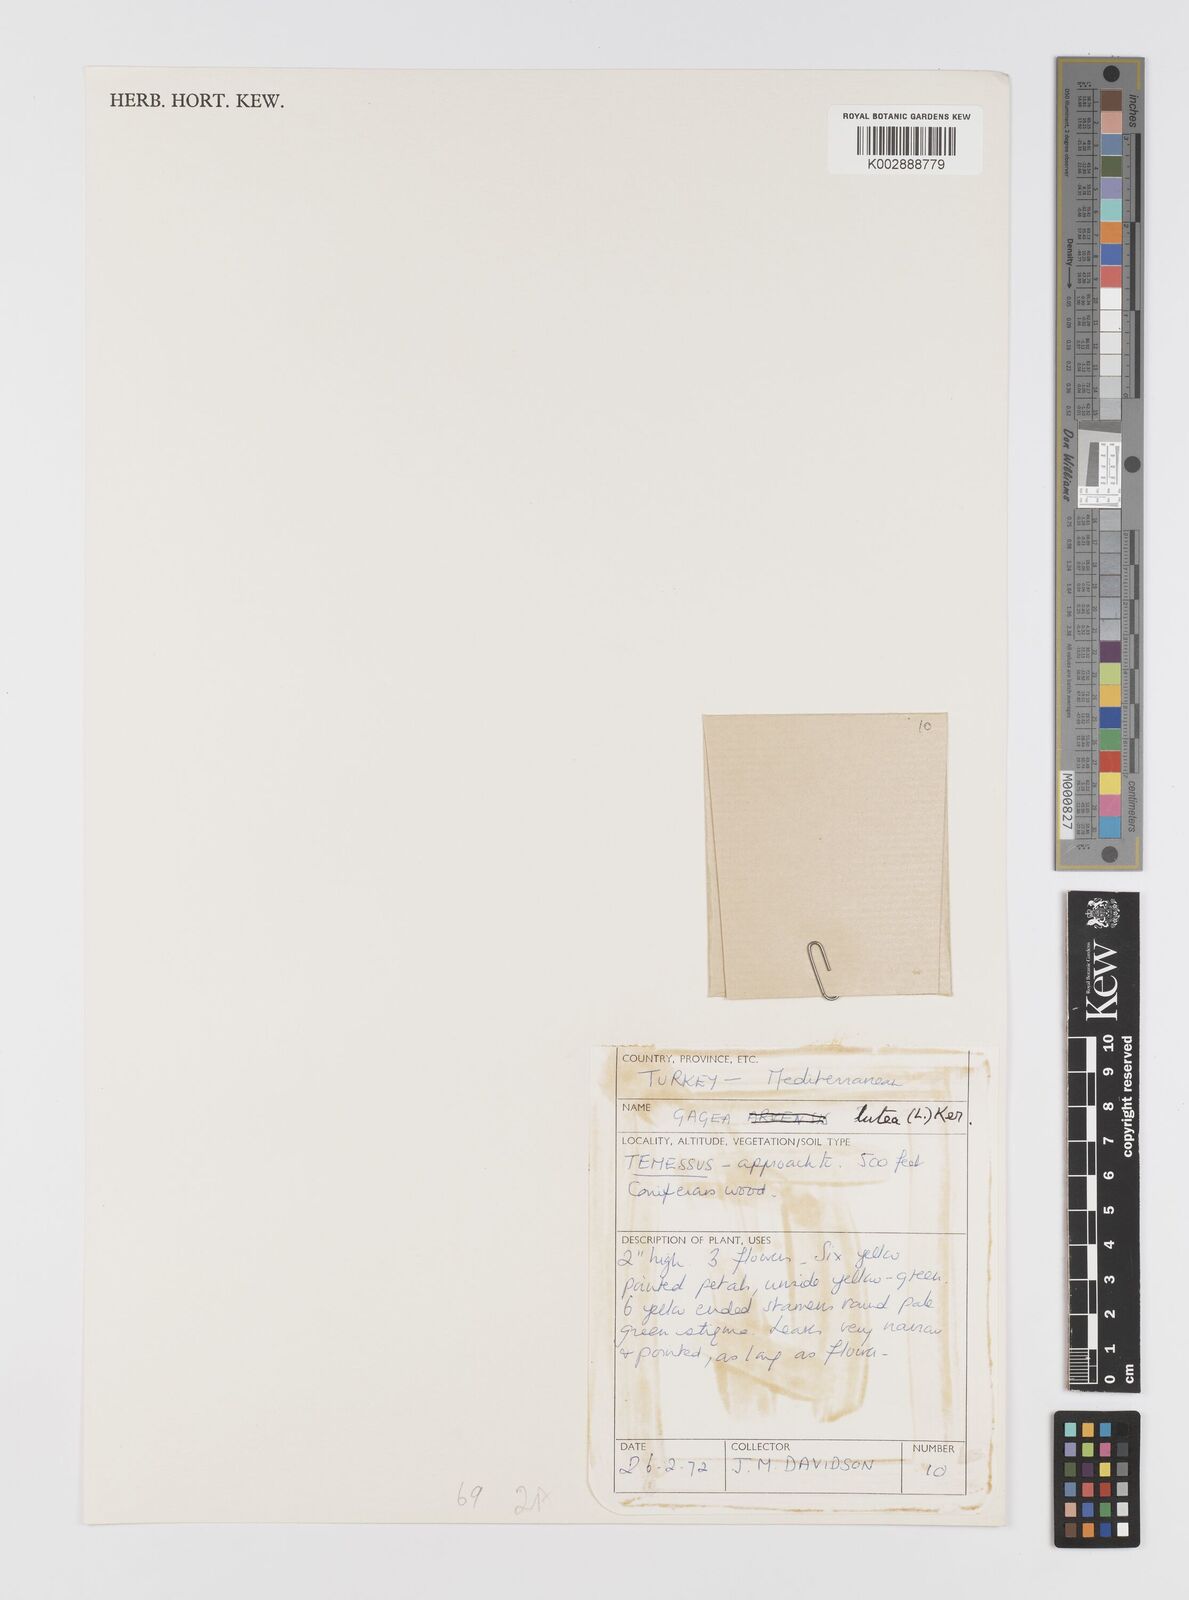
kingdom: Plantae
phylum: Tracheophyta
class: Liliopsida
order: Liliales
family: Liliaceae
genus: Gagea
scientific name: Gagea lutea
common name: Yellow star-of-bethlehem
